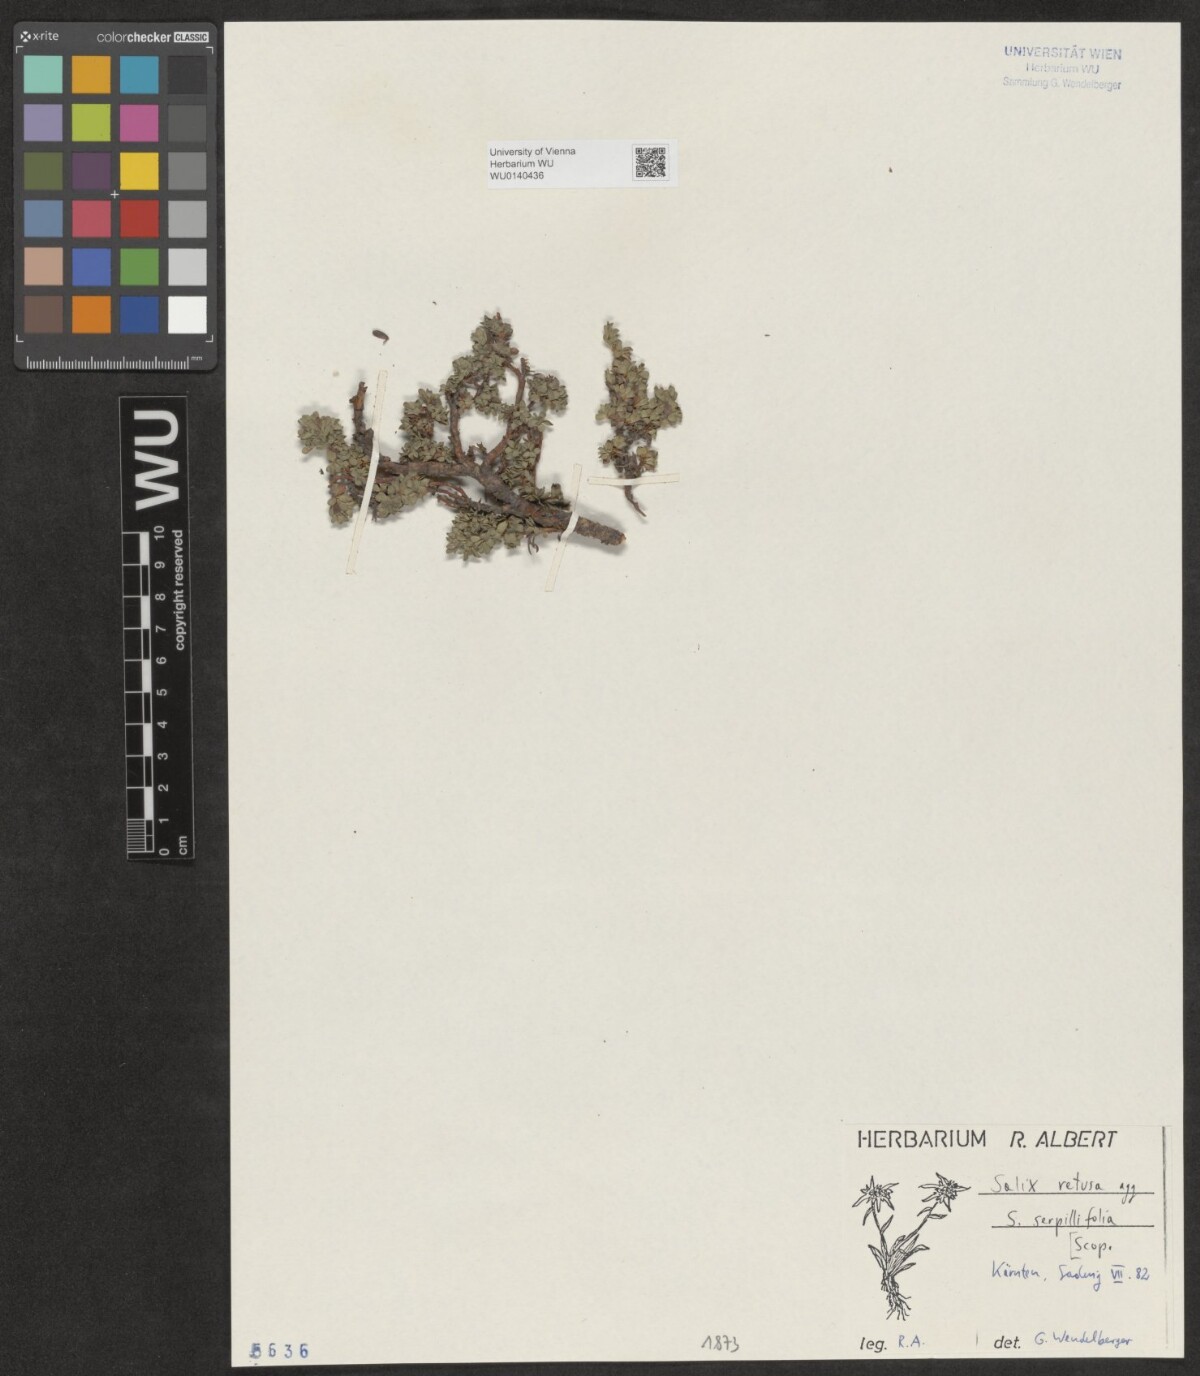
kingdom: Plantae
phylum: Tracheophyta
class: Magnoliopsida
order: Malpighiales
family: Salicaceae
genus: Salix
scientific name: Salix serpillifolia
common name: Thyme-leaf willow
